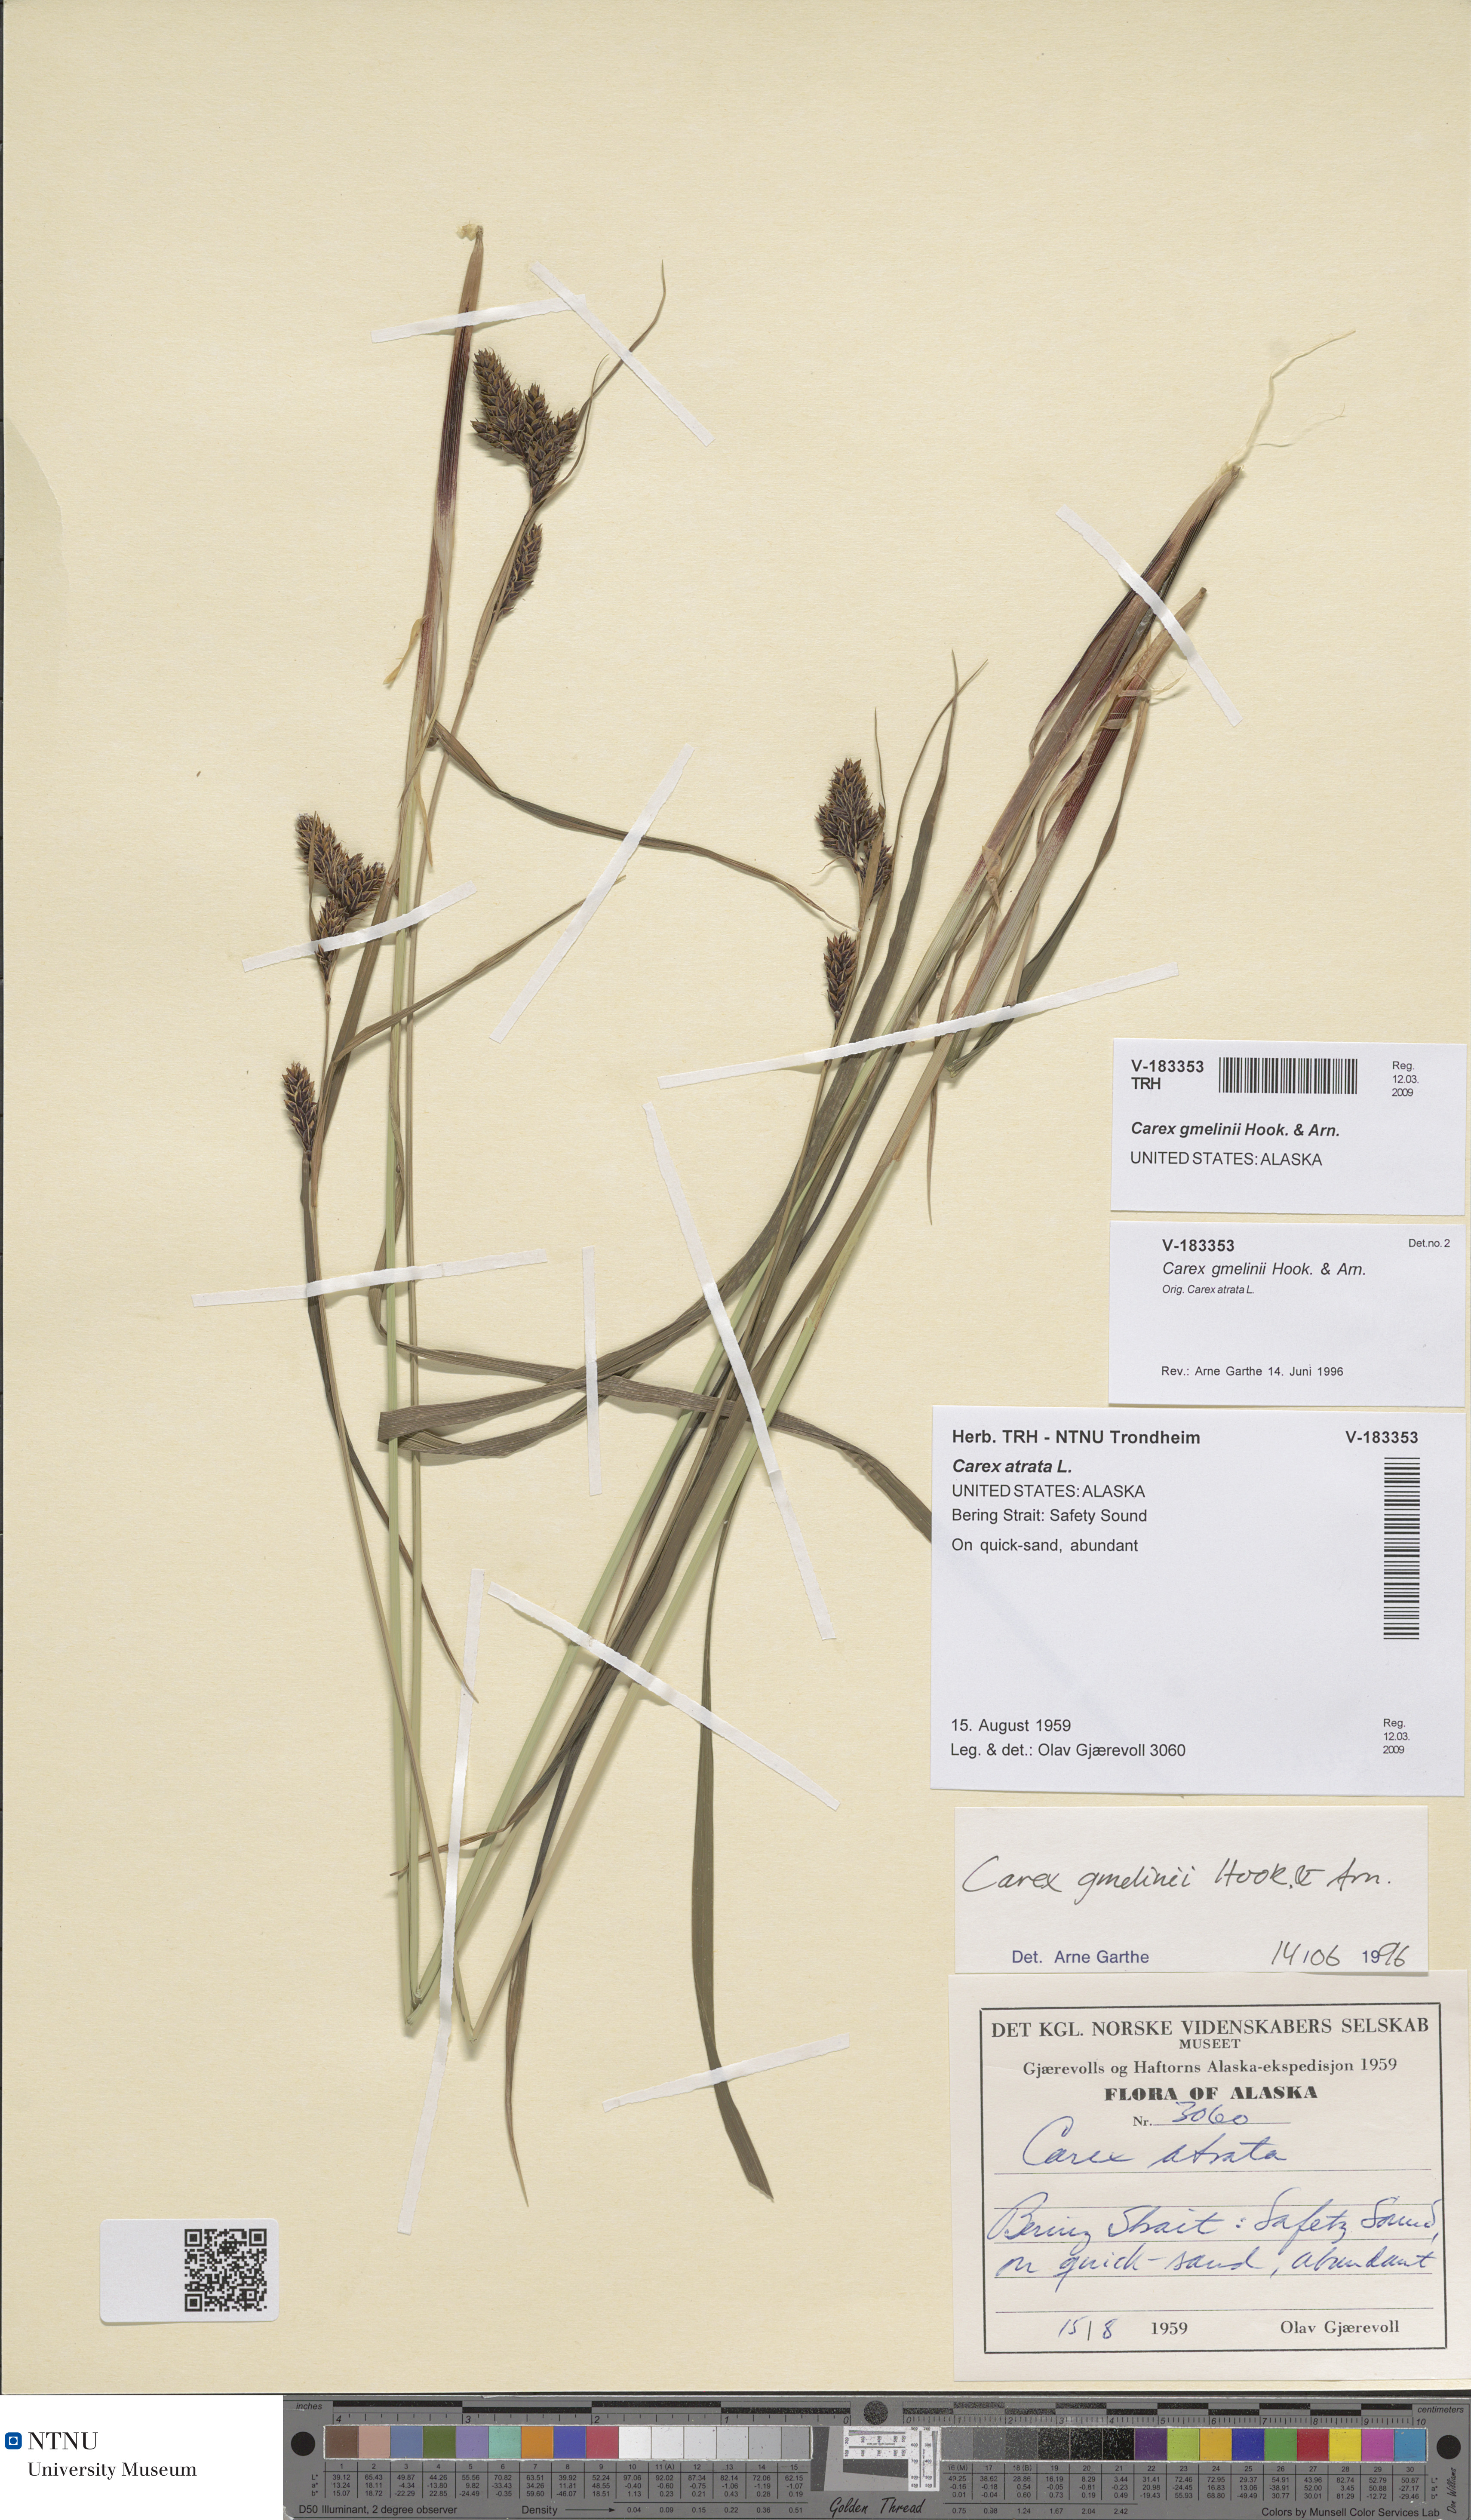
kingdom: Plantae
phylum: Tracheophyta
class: Liliopsida
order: Poales
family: Cyperaceae
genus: Carex
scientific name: Carex gmelinii
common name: Gmelin's sedge
